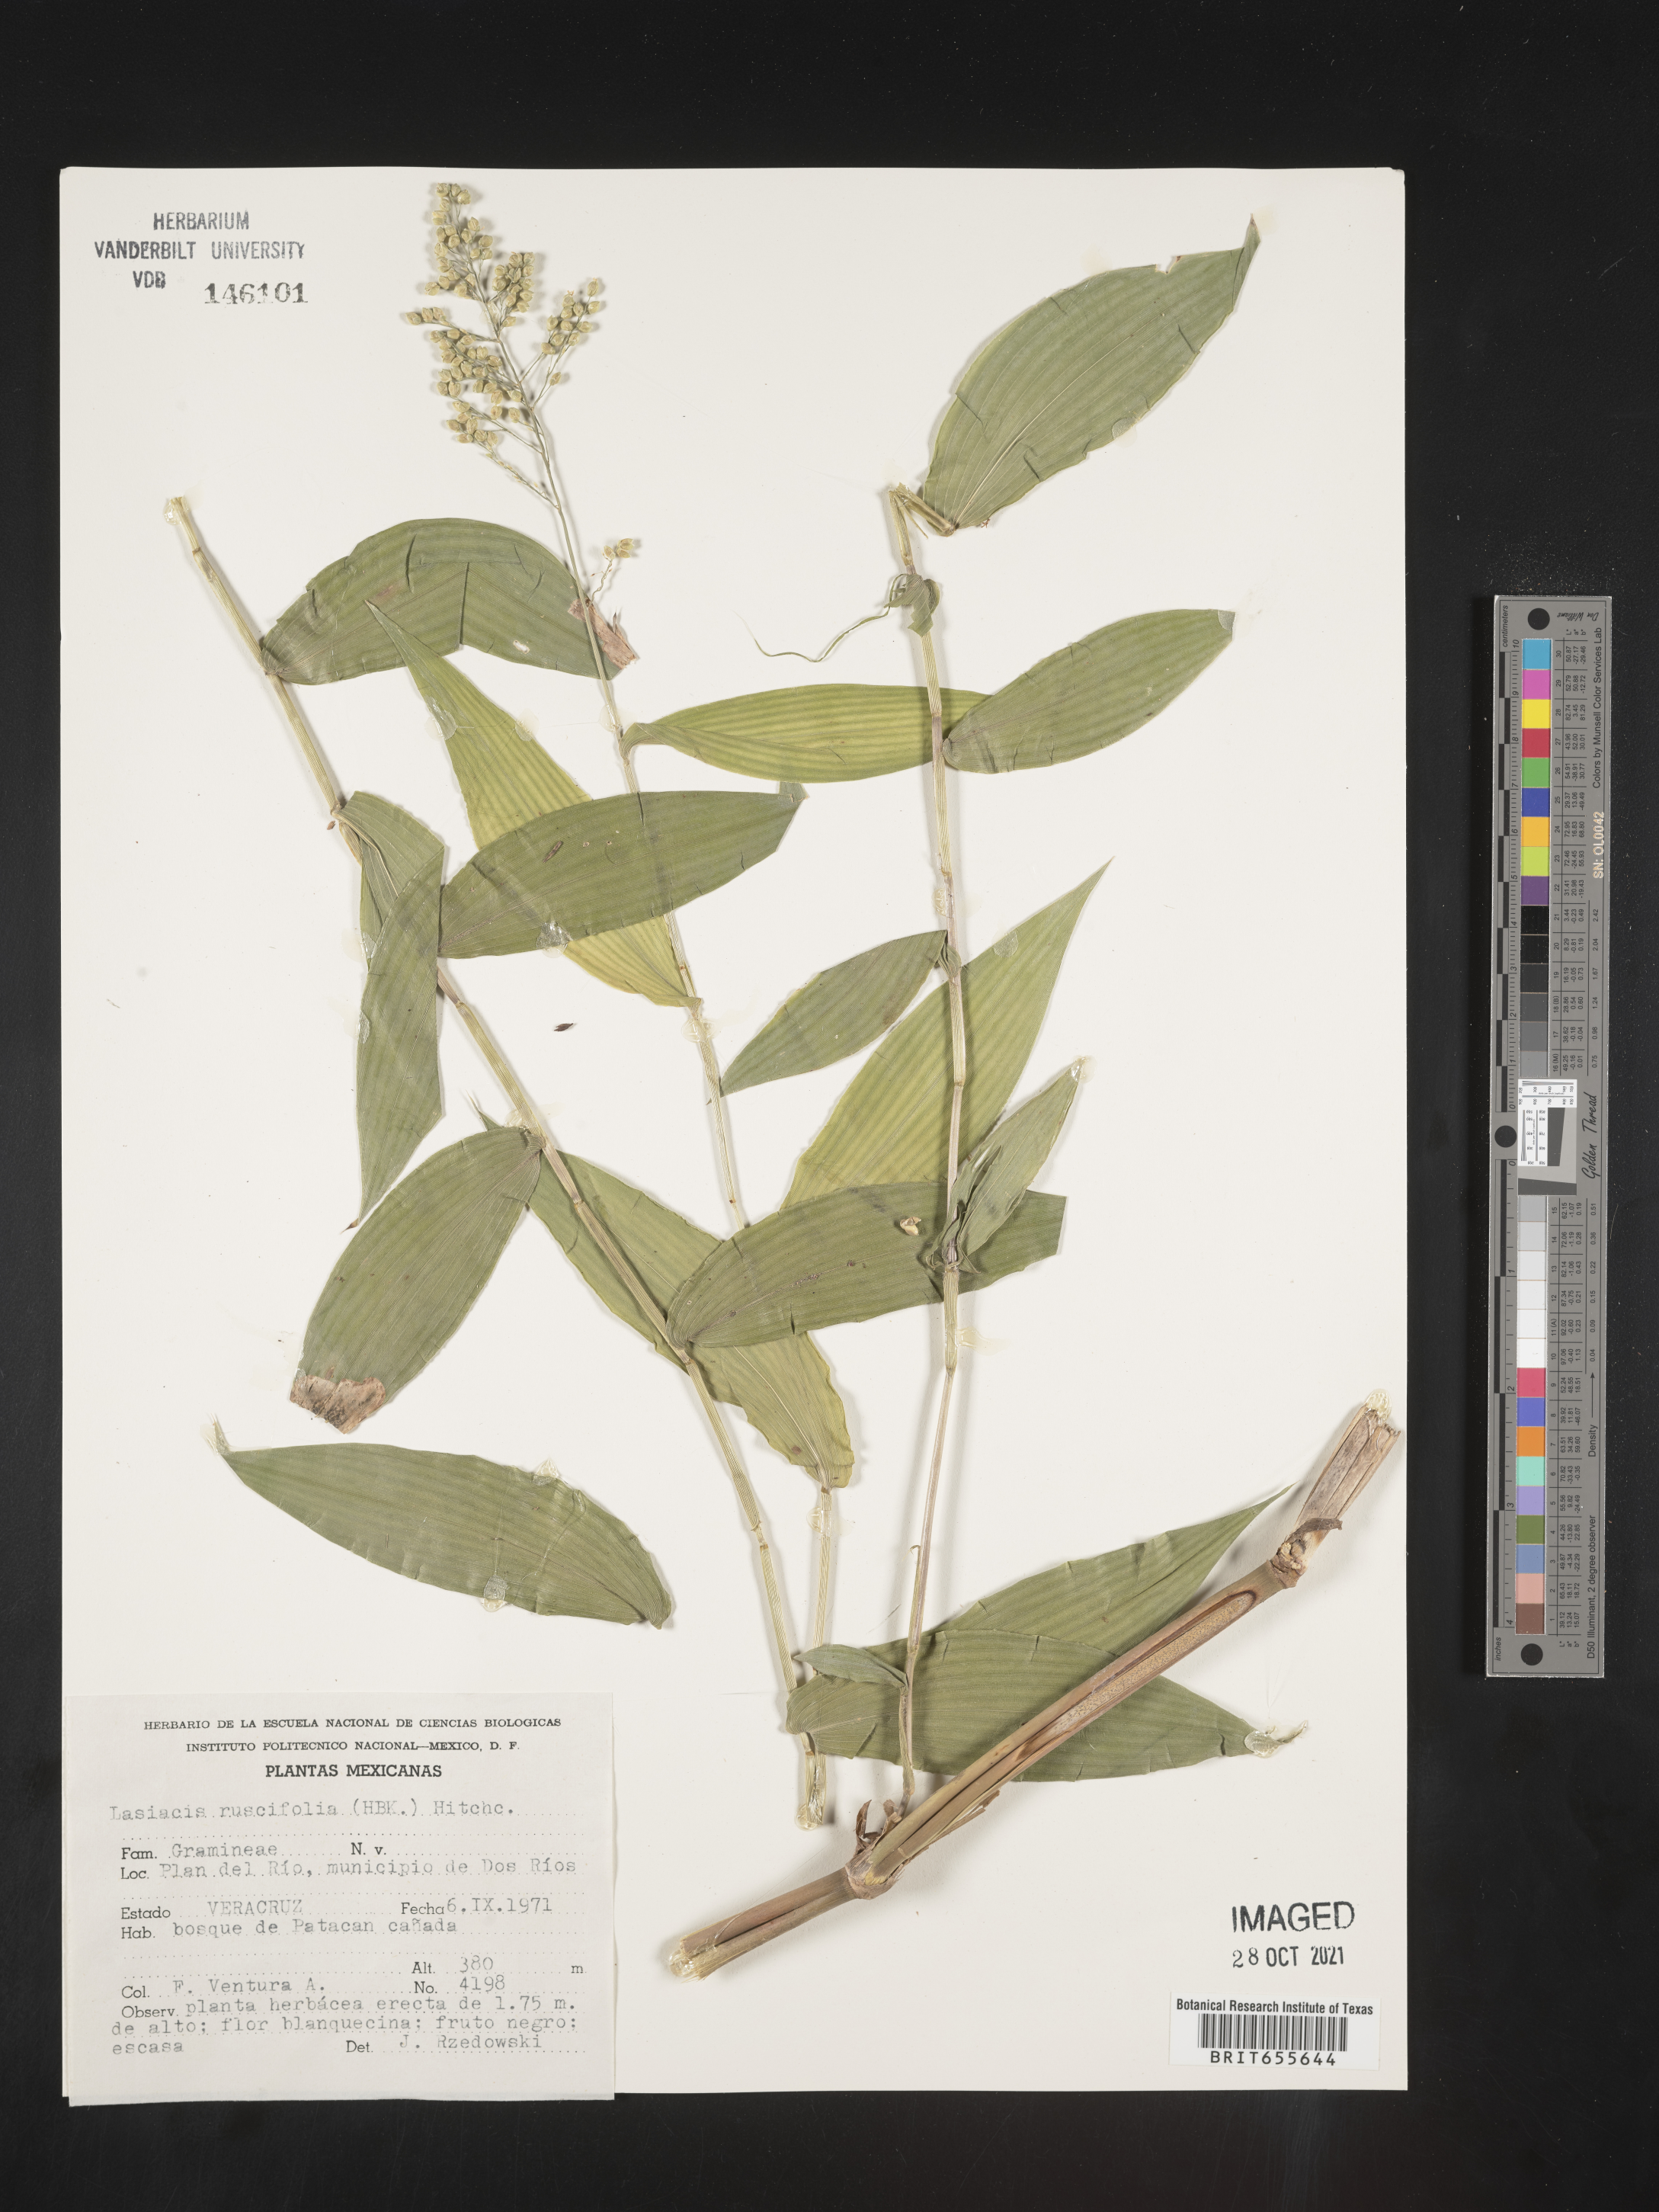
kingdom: Plantae
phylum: Tracheophyta
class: Liliopsida
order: Poales
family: Poaceae
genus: Lasiacis
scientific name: Lasiacis
